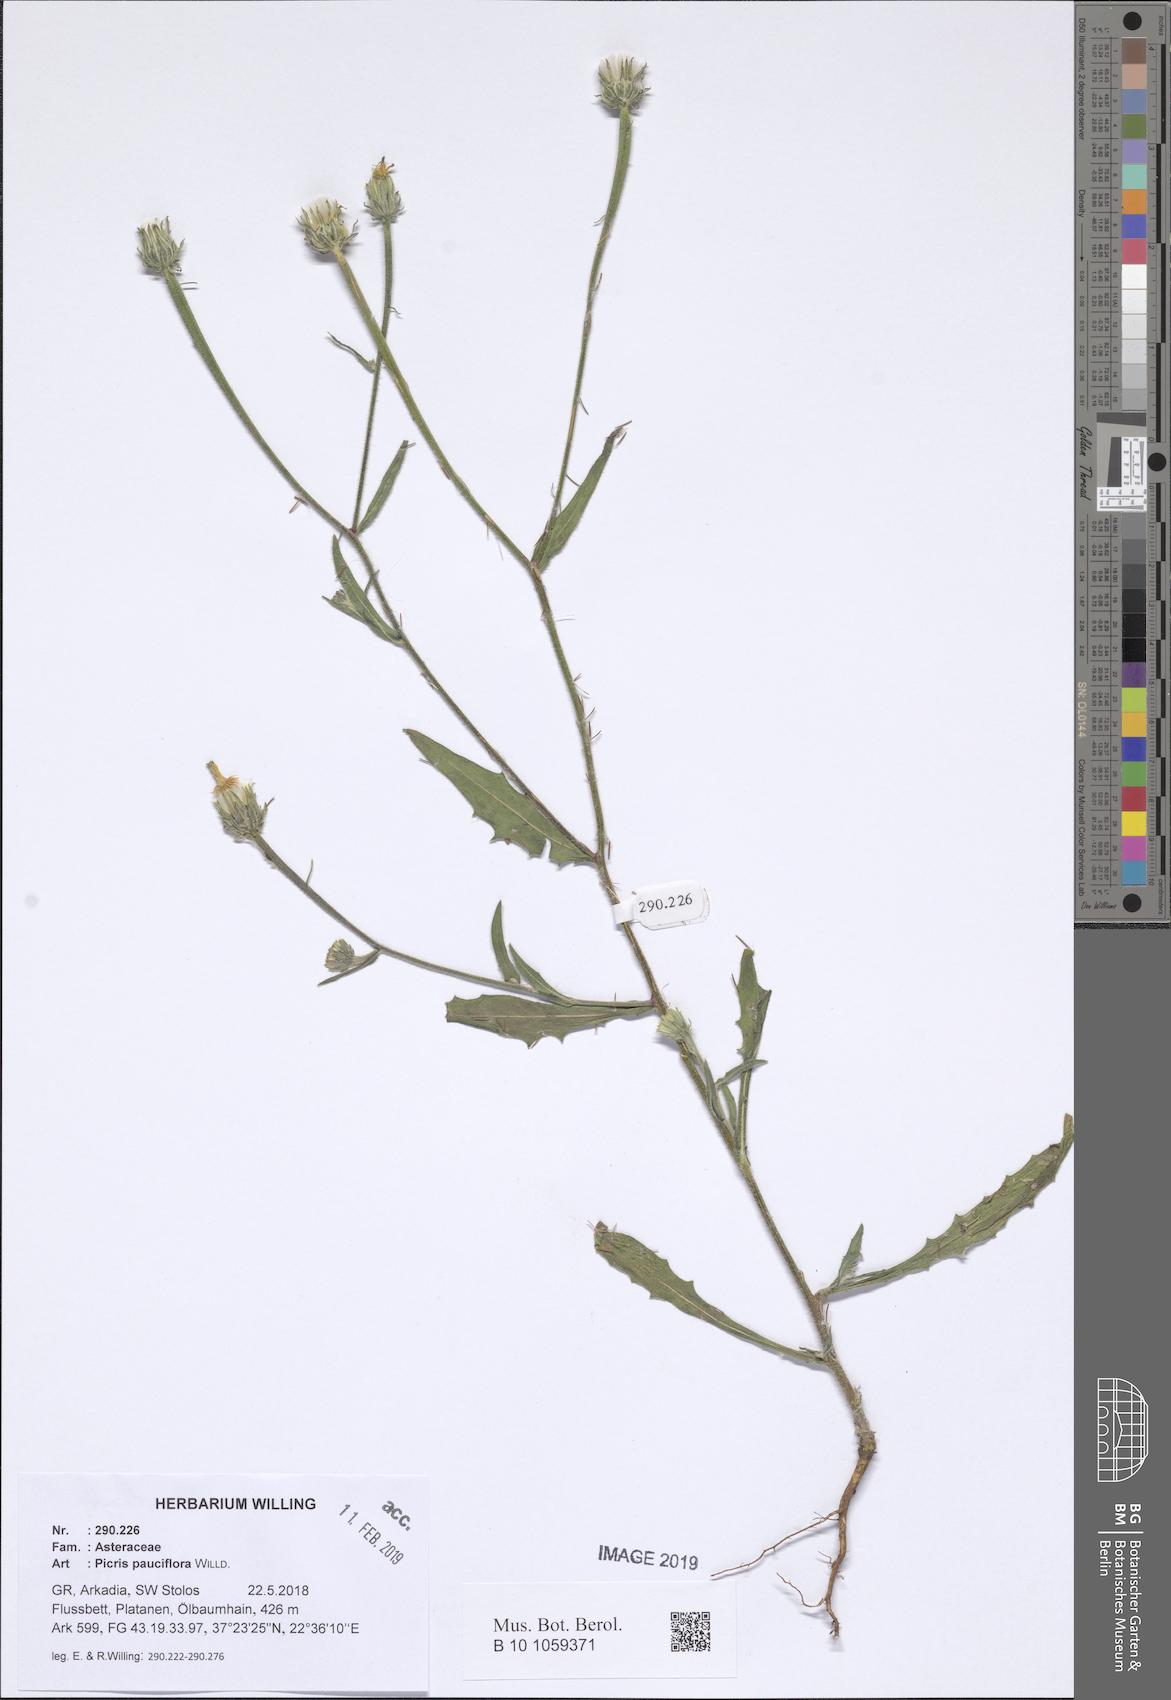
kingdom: Plantae
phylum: Tracheophyta
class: Magnoliopsida
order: Asterales
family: Asteraceae
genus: Picris
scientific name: Picris pauciflora
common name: Smallflower oxtongue
